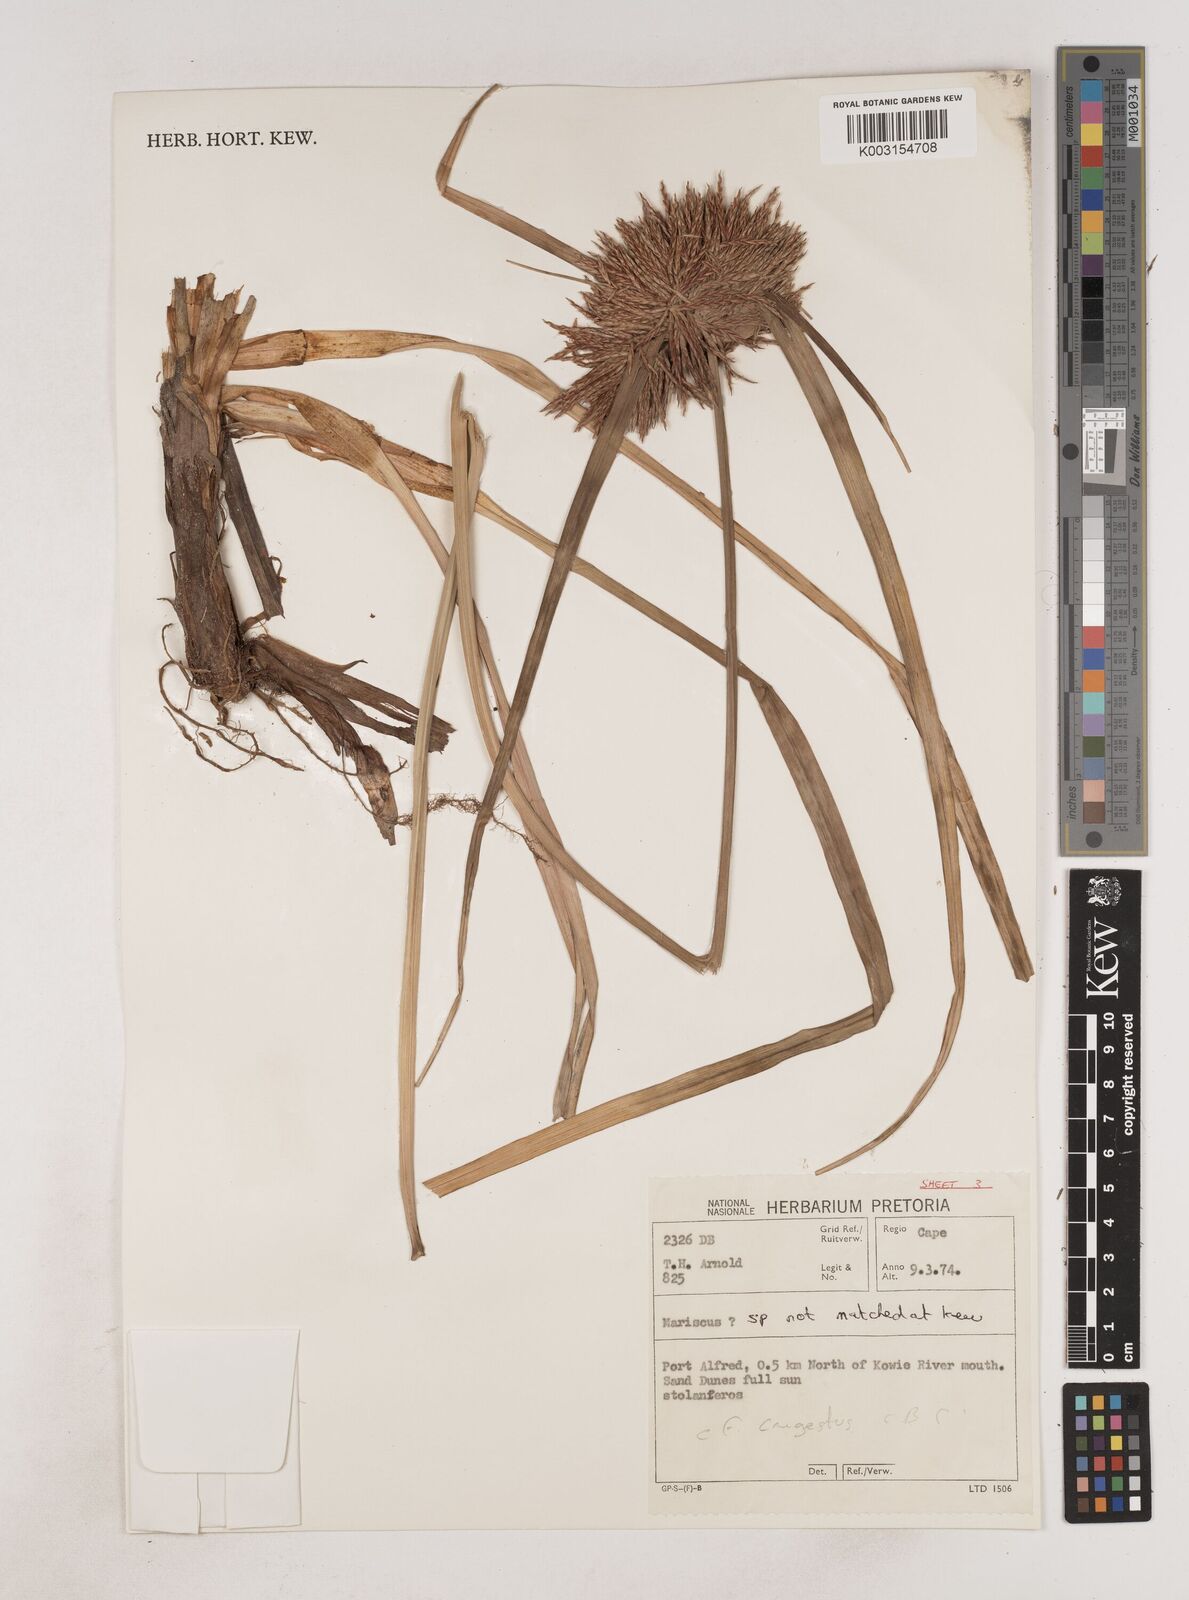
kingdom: Plantae
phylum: Tracheophyta
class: Liliopsida
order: Poales
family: Cyperaceae
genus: Cyperus
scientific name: Cyperus
